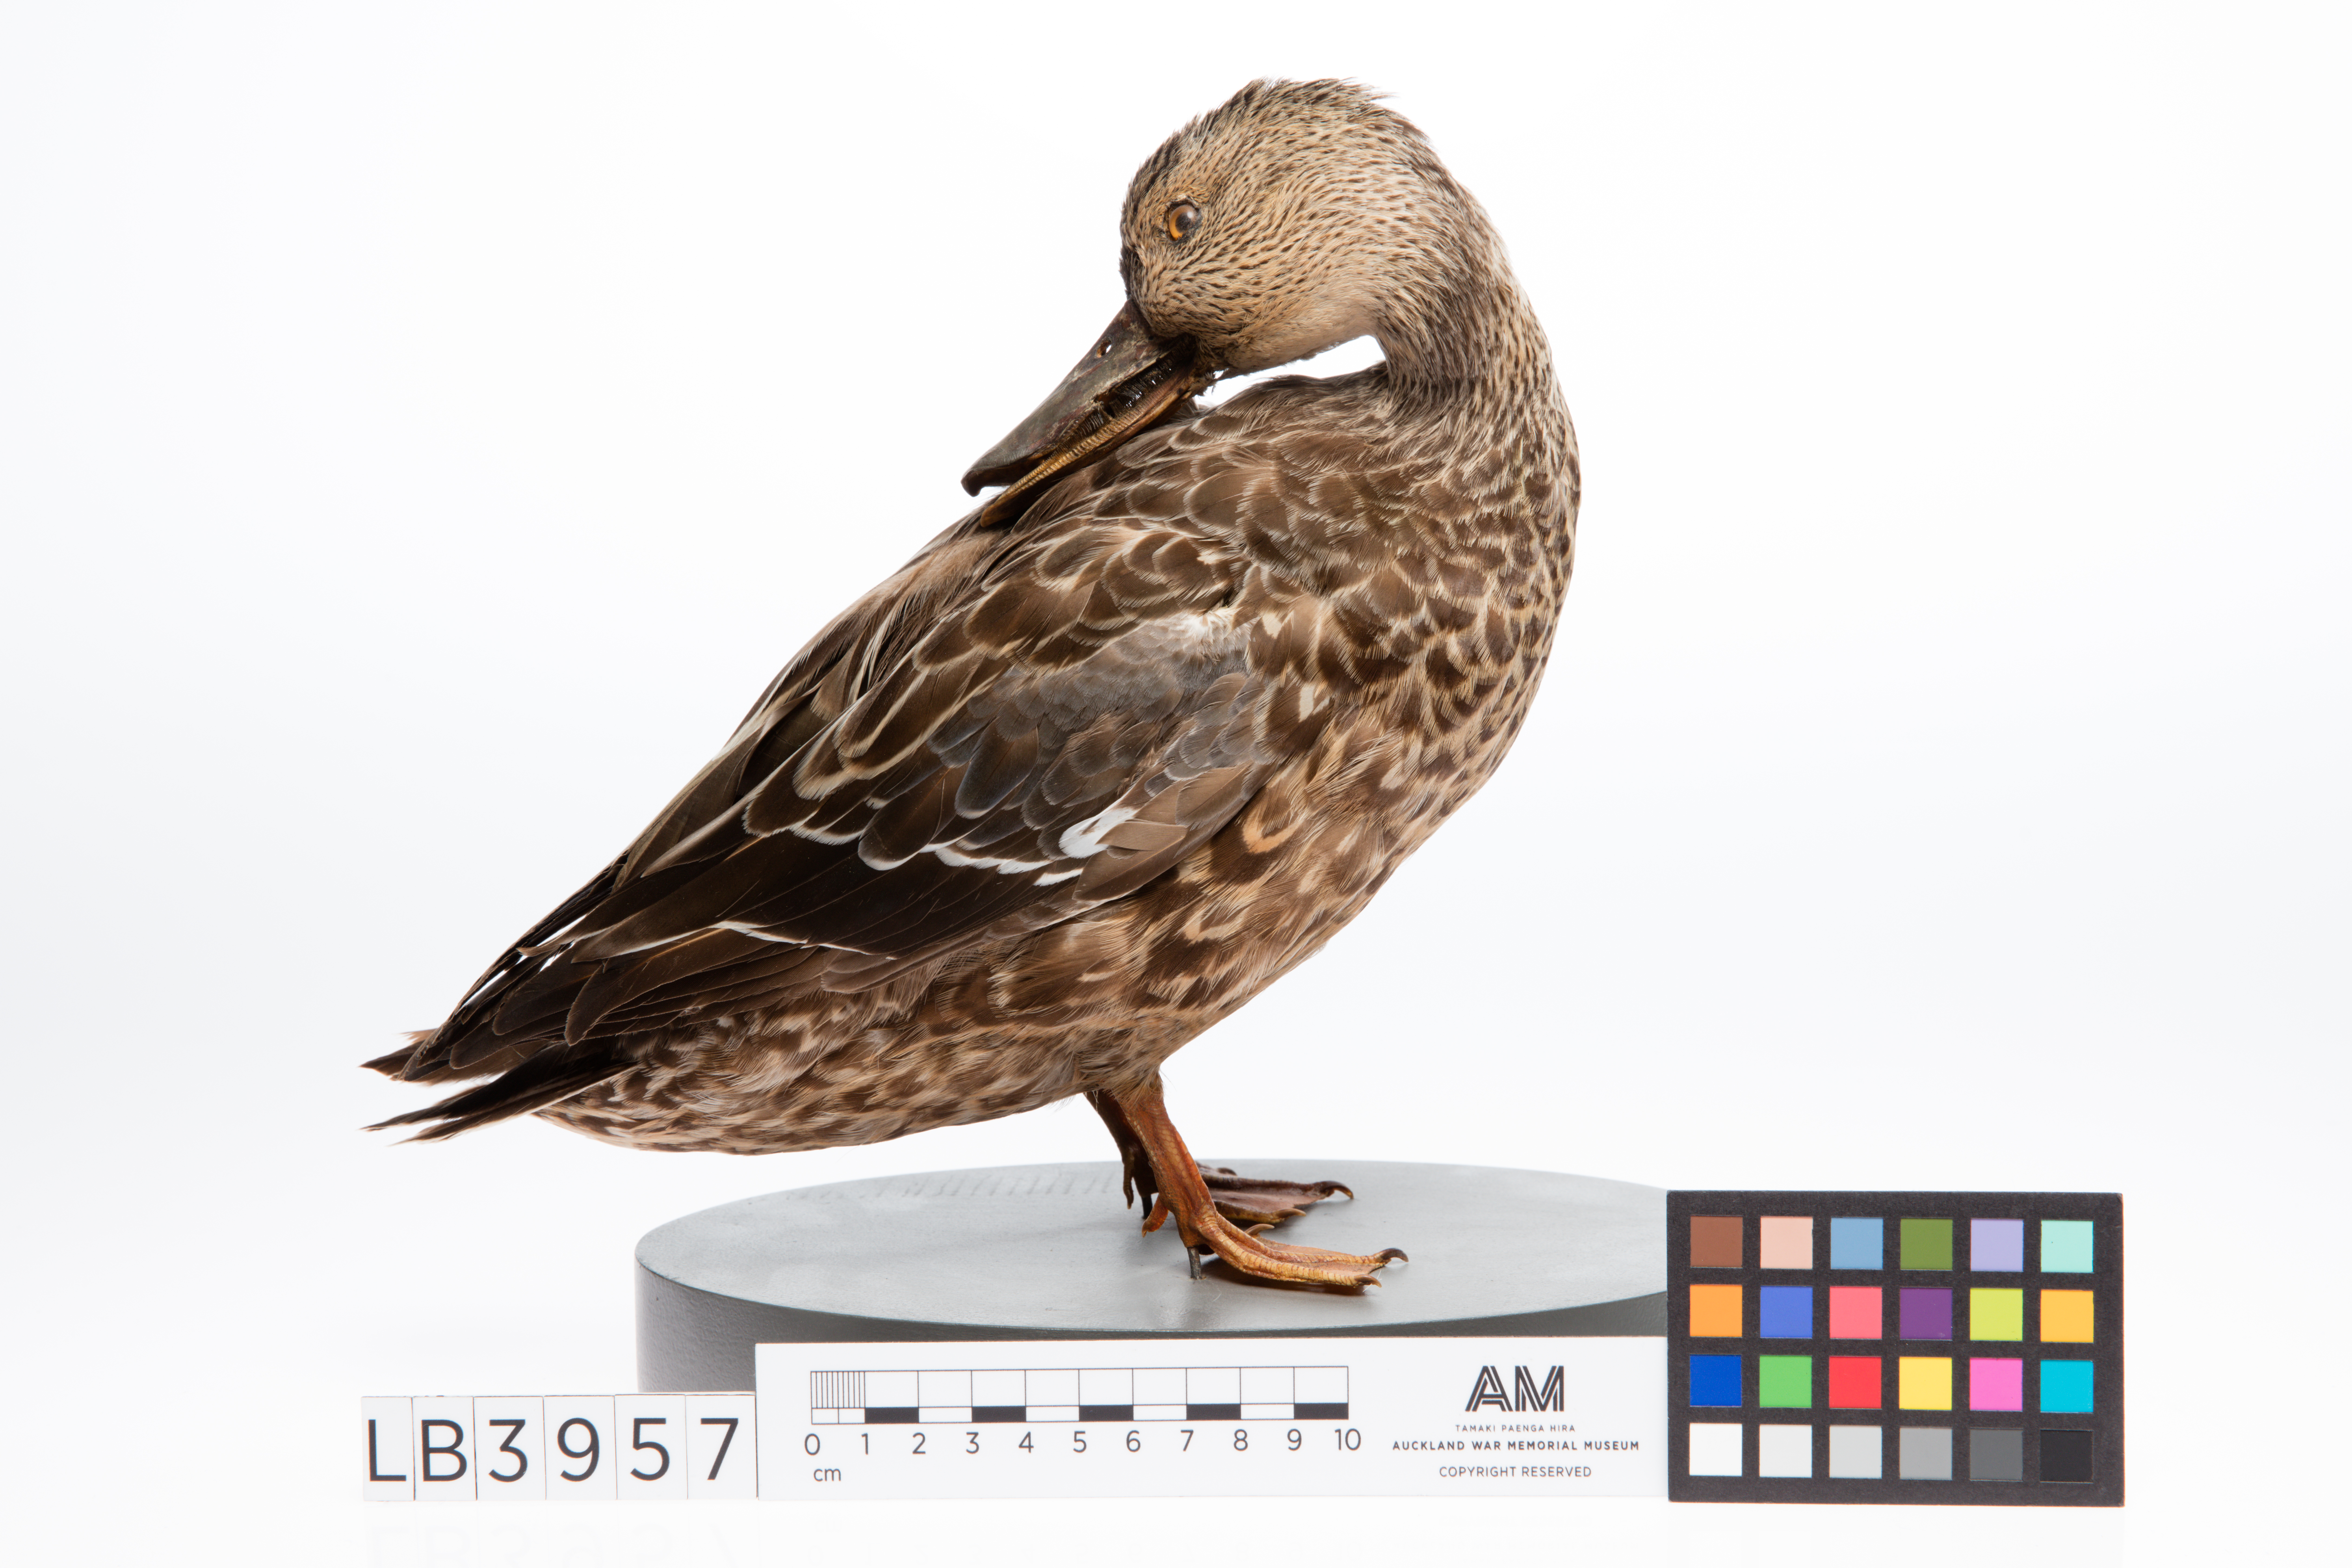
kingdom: Animalia
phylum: Chordata
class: Aves
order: Anseriformes
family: Anatidae
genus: Spatula
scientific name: Spatula rhynchotis
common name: Australian shoveler
